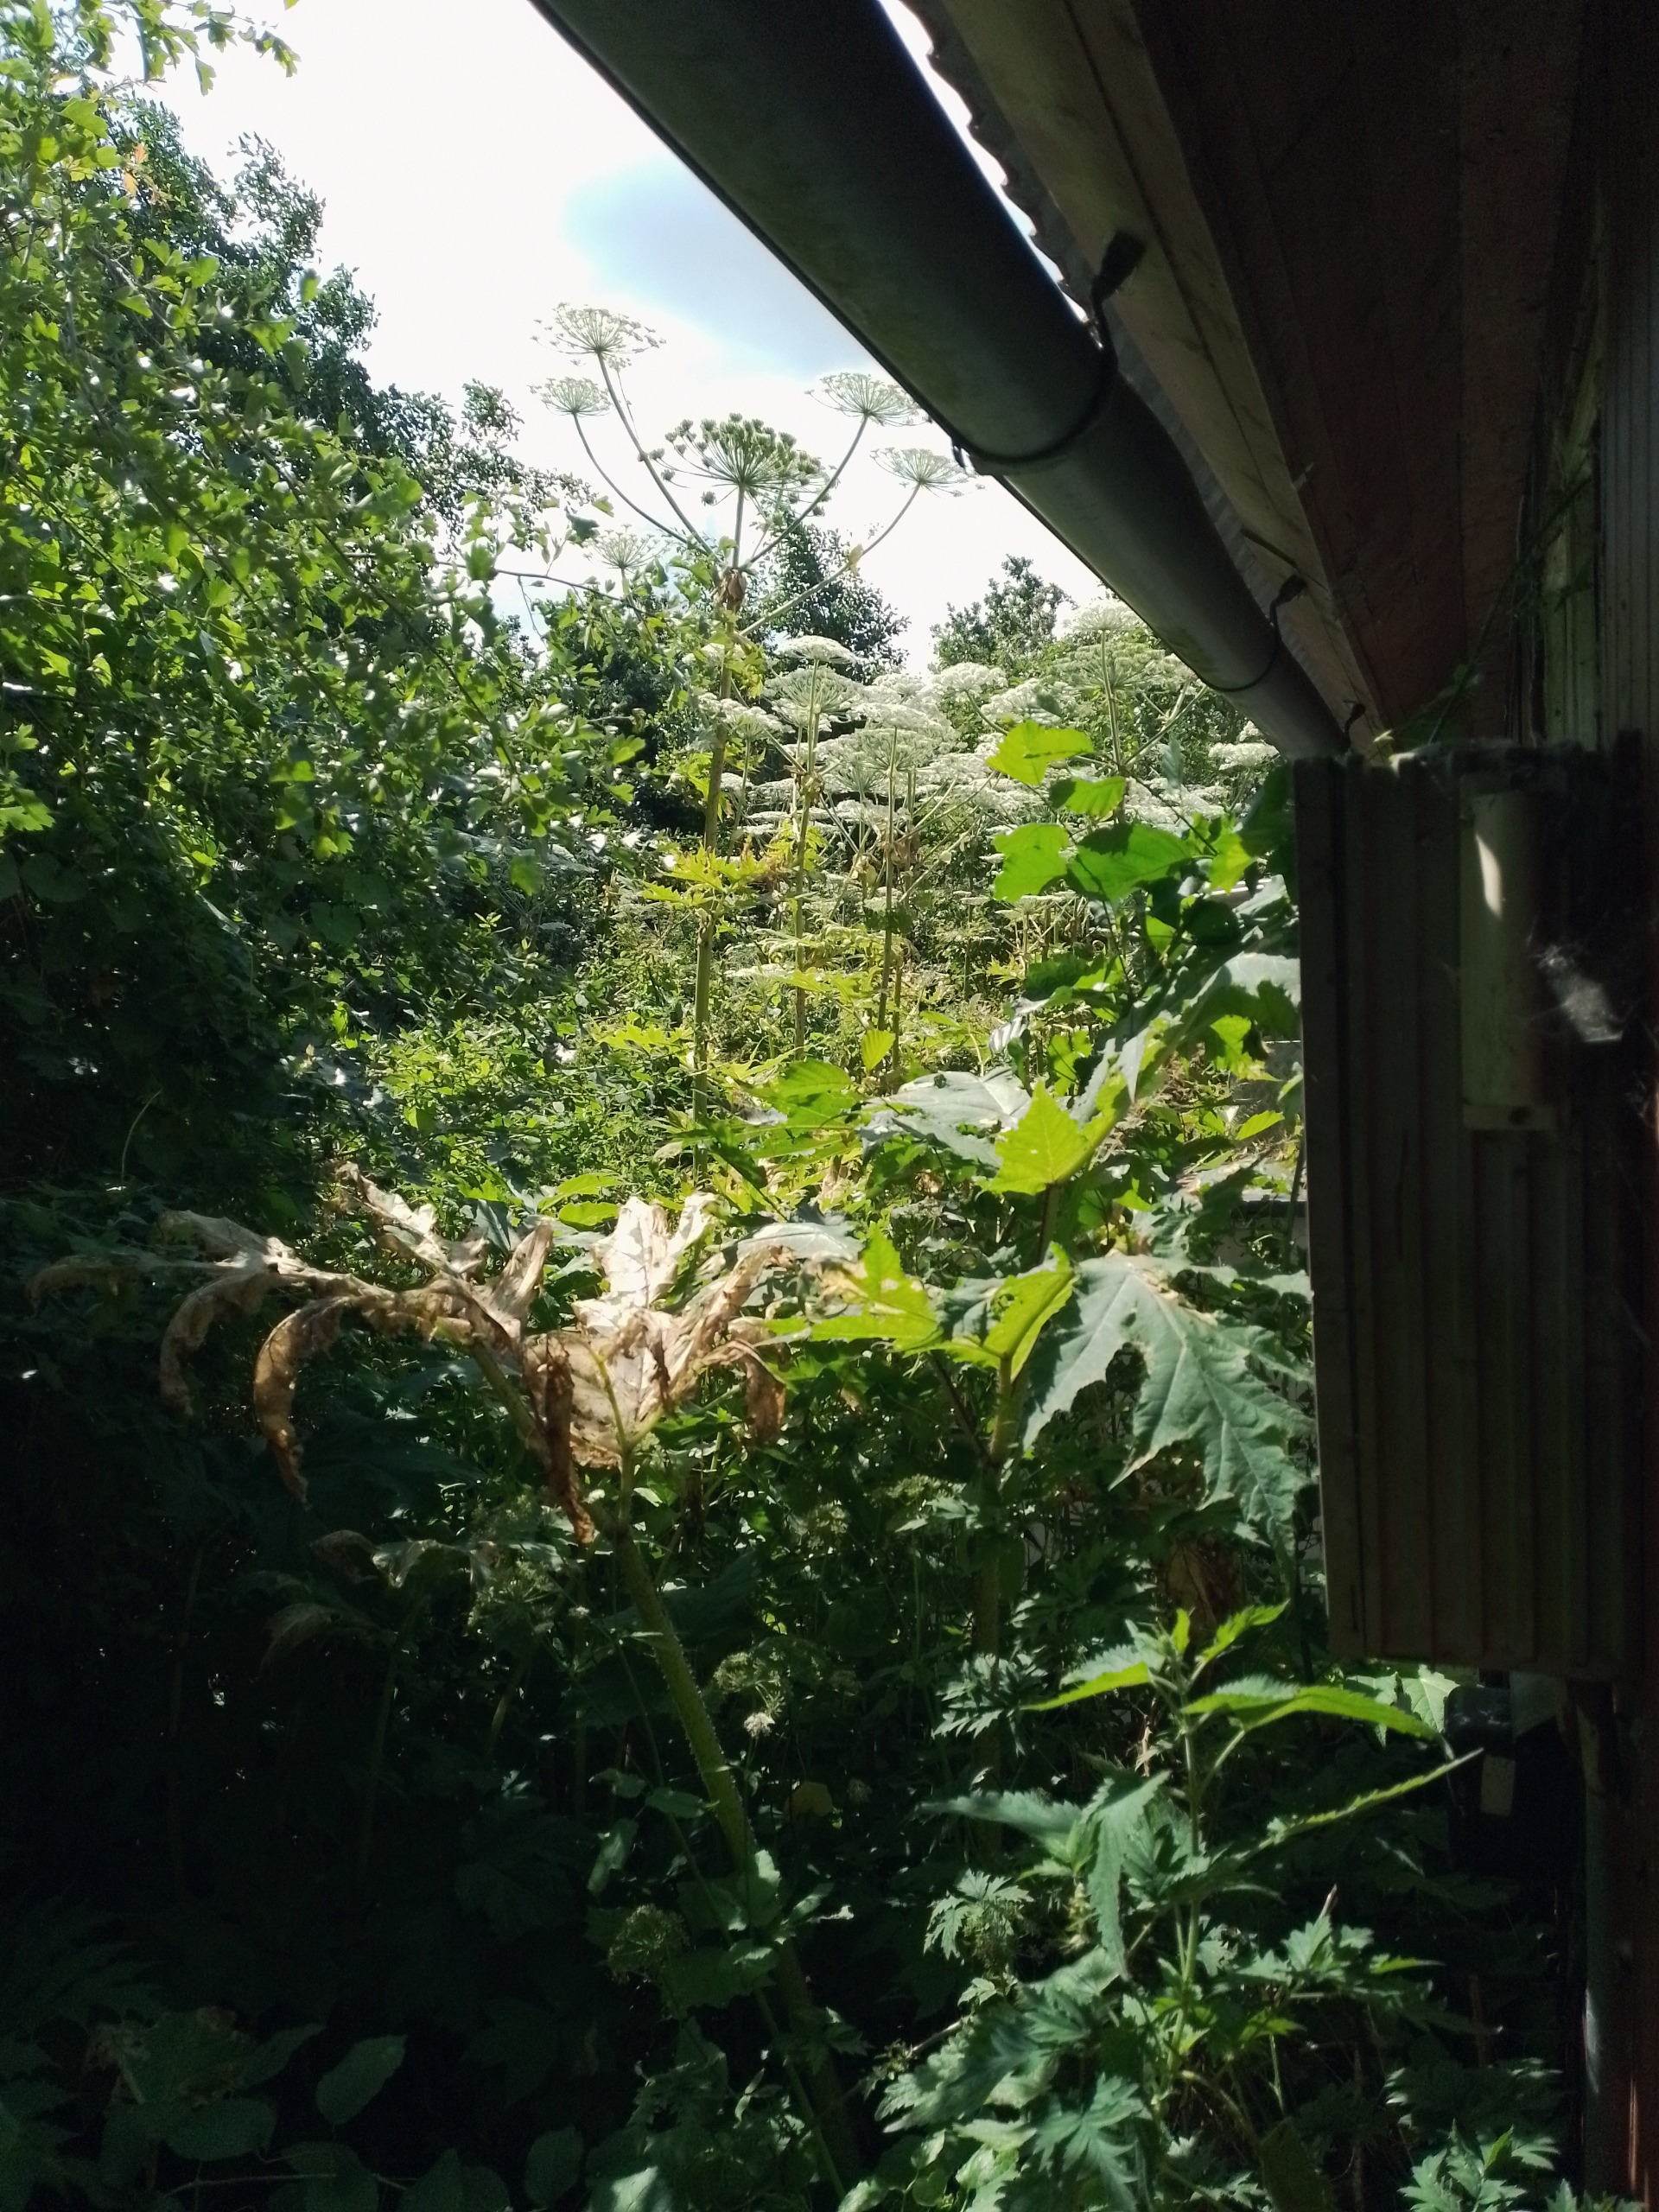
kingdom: Plantae
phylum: Tracheophyta
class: Magnoliopsida
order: Apiales
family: Apiaceae
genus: Heracleum
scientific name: Heracleum mantegazzianum
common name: Kæmpe-bjørneklo
